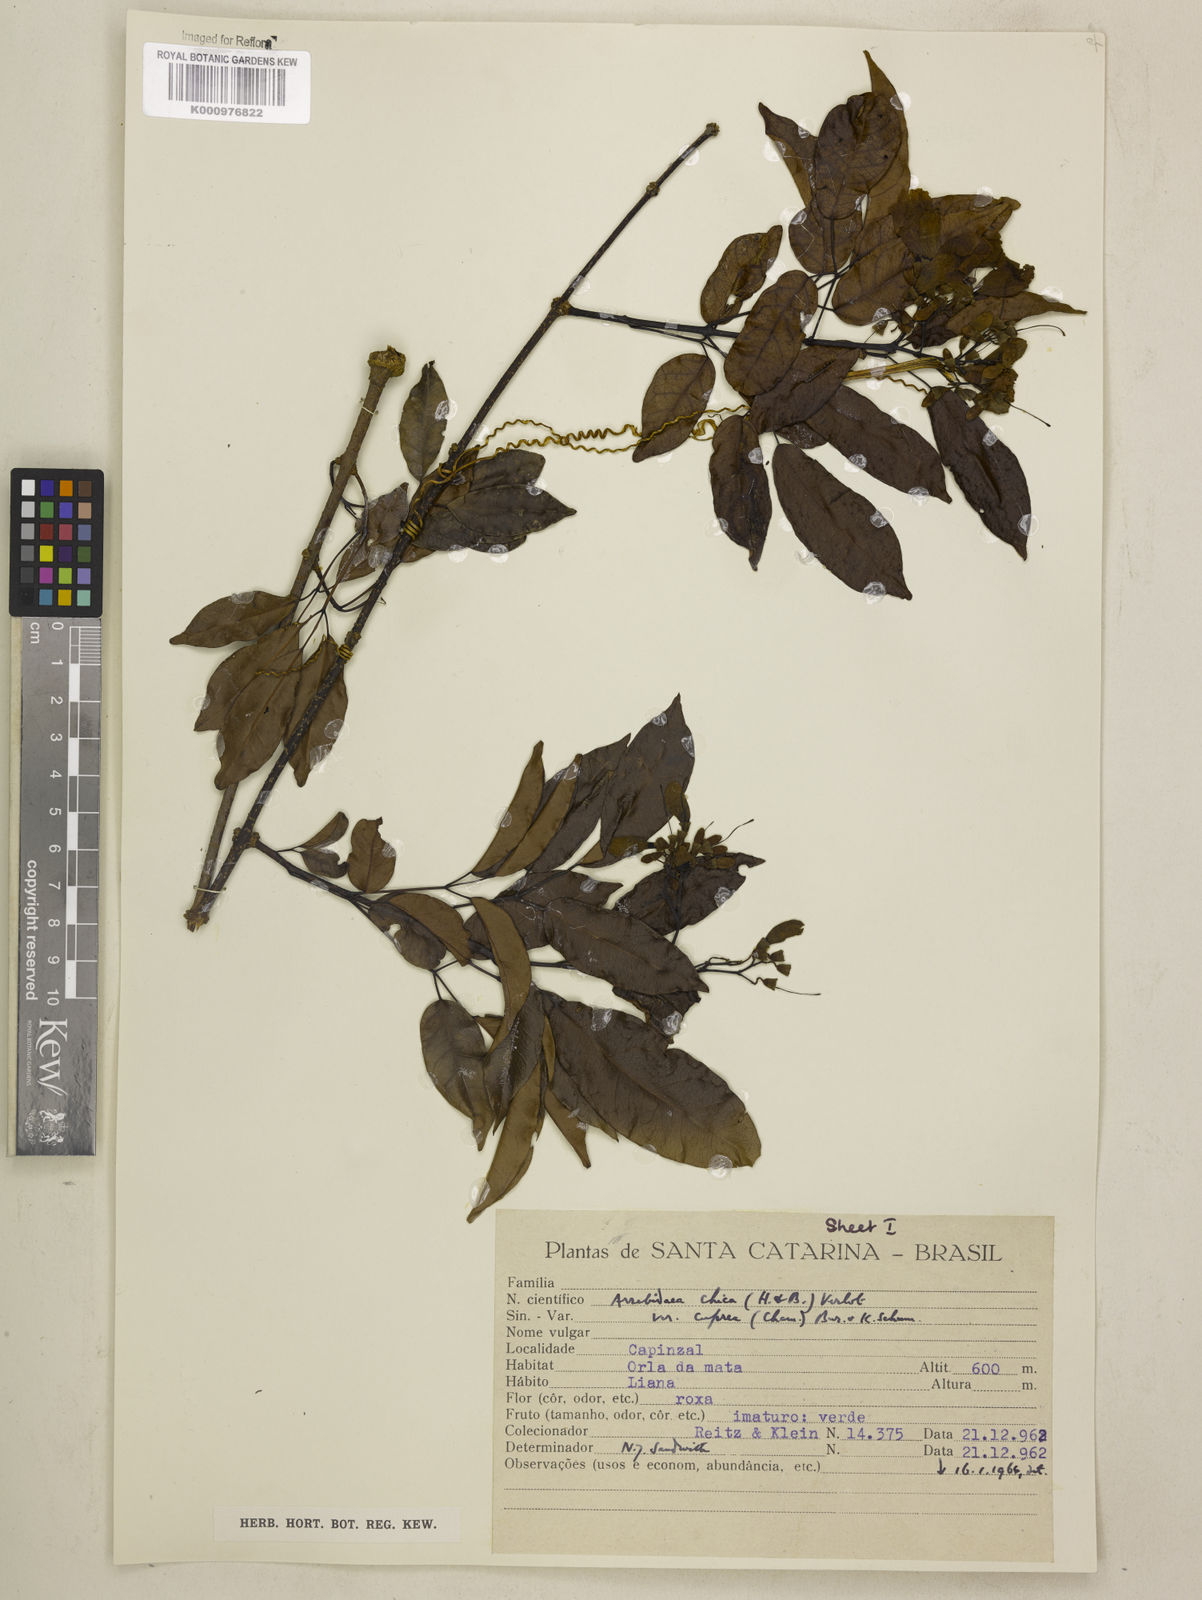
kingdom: Plantae
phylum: Tracheophyta
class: Magnoliopsida
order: Lamiales
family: Bignoniaceae
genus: Fridericia
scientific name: Fridericia chica
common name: Cricketvine
